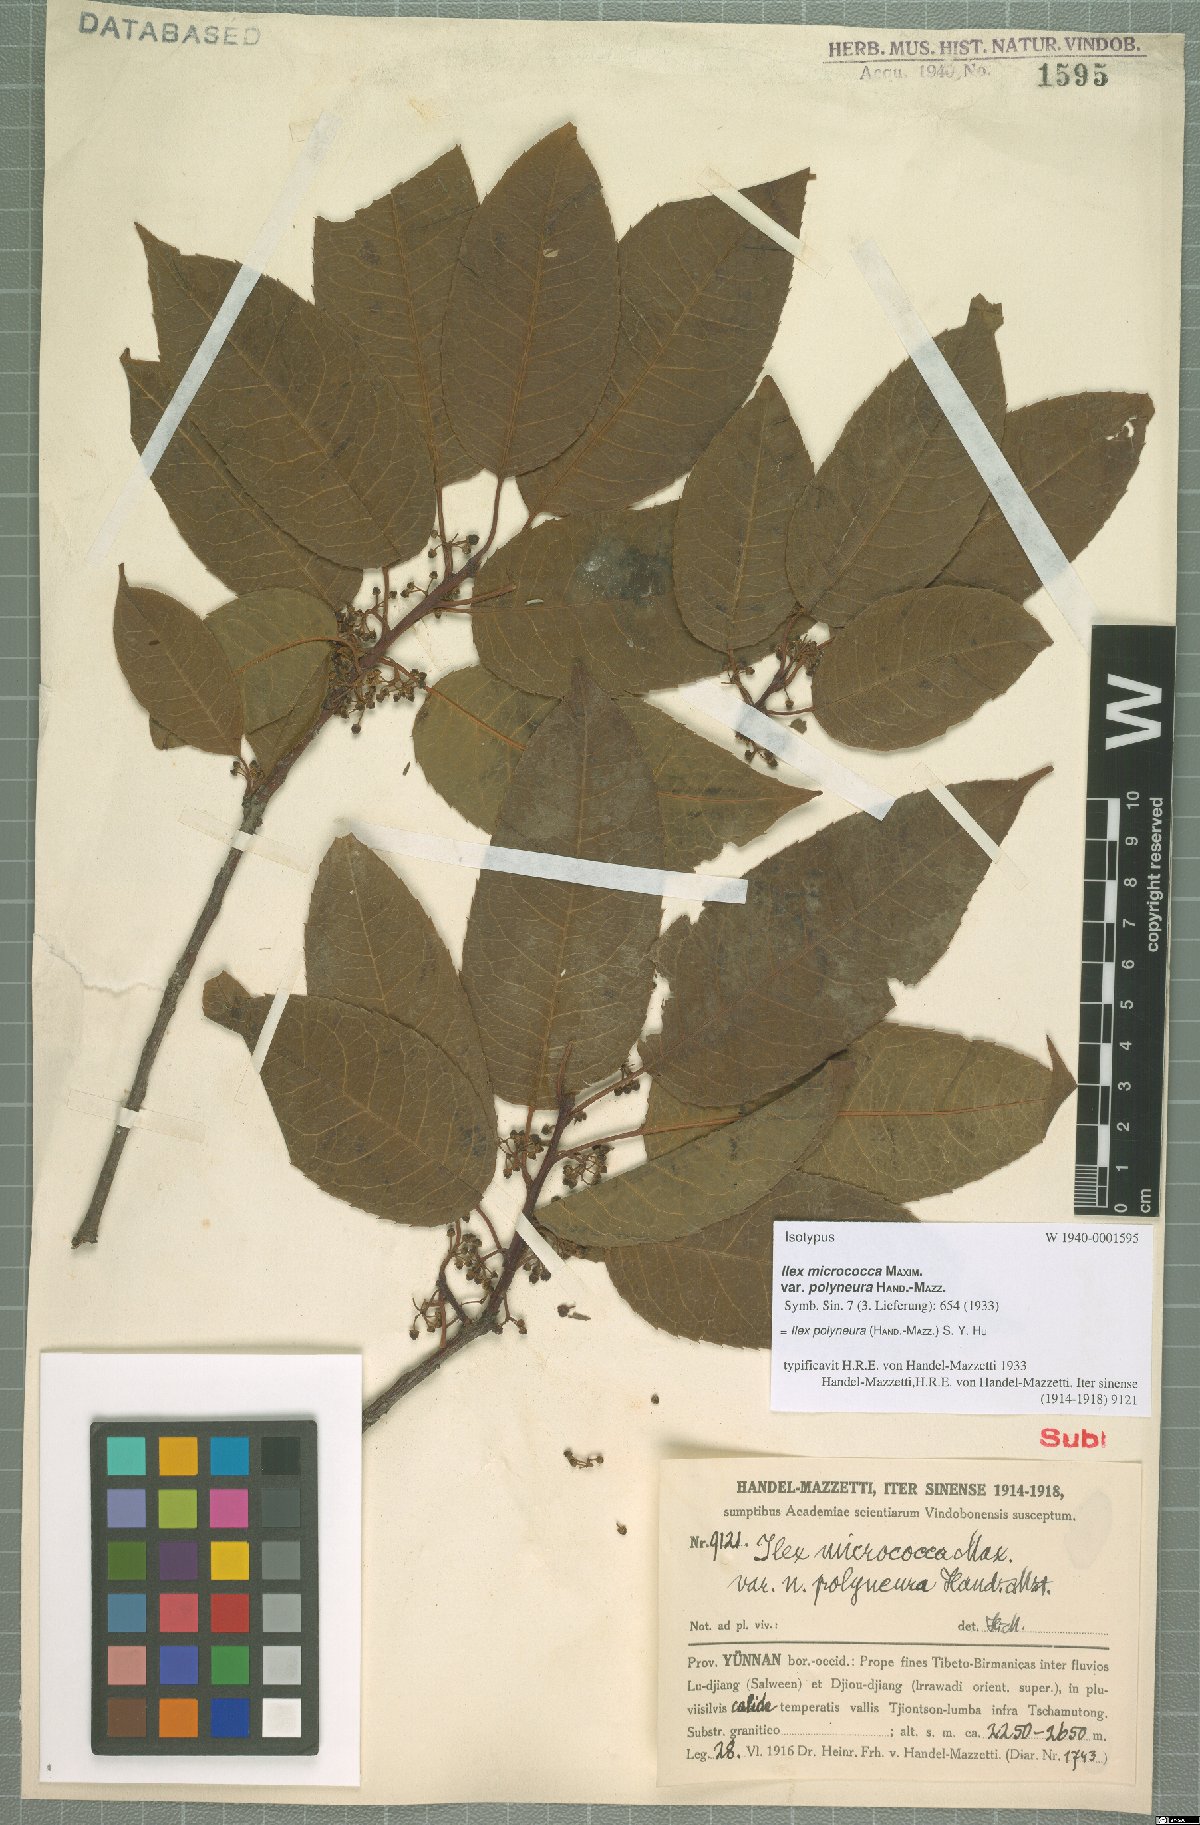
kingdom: Plantae
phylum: Tracheophyta
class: Magnoliopsida
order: Aquifoliales
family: Aquifoliaceae
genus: Ilex
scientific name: Ilex micrococca
